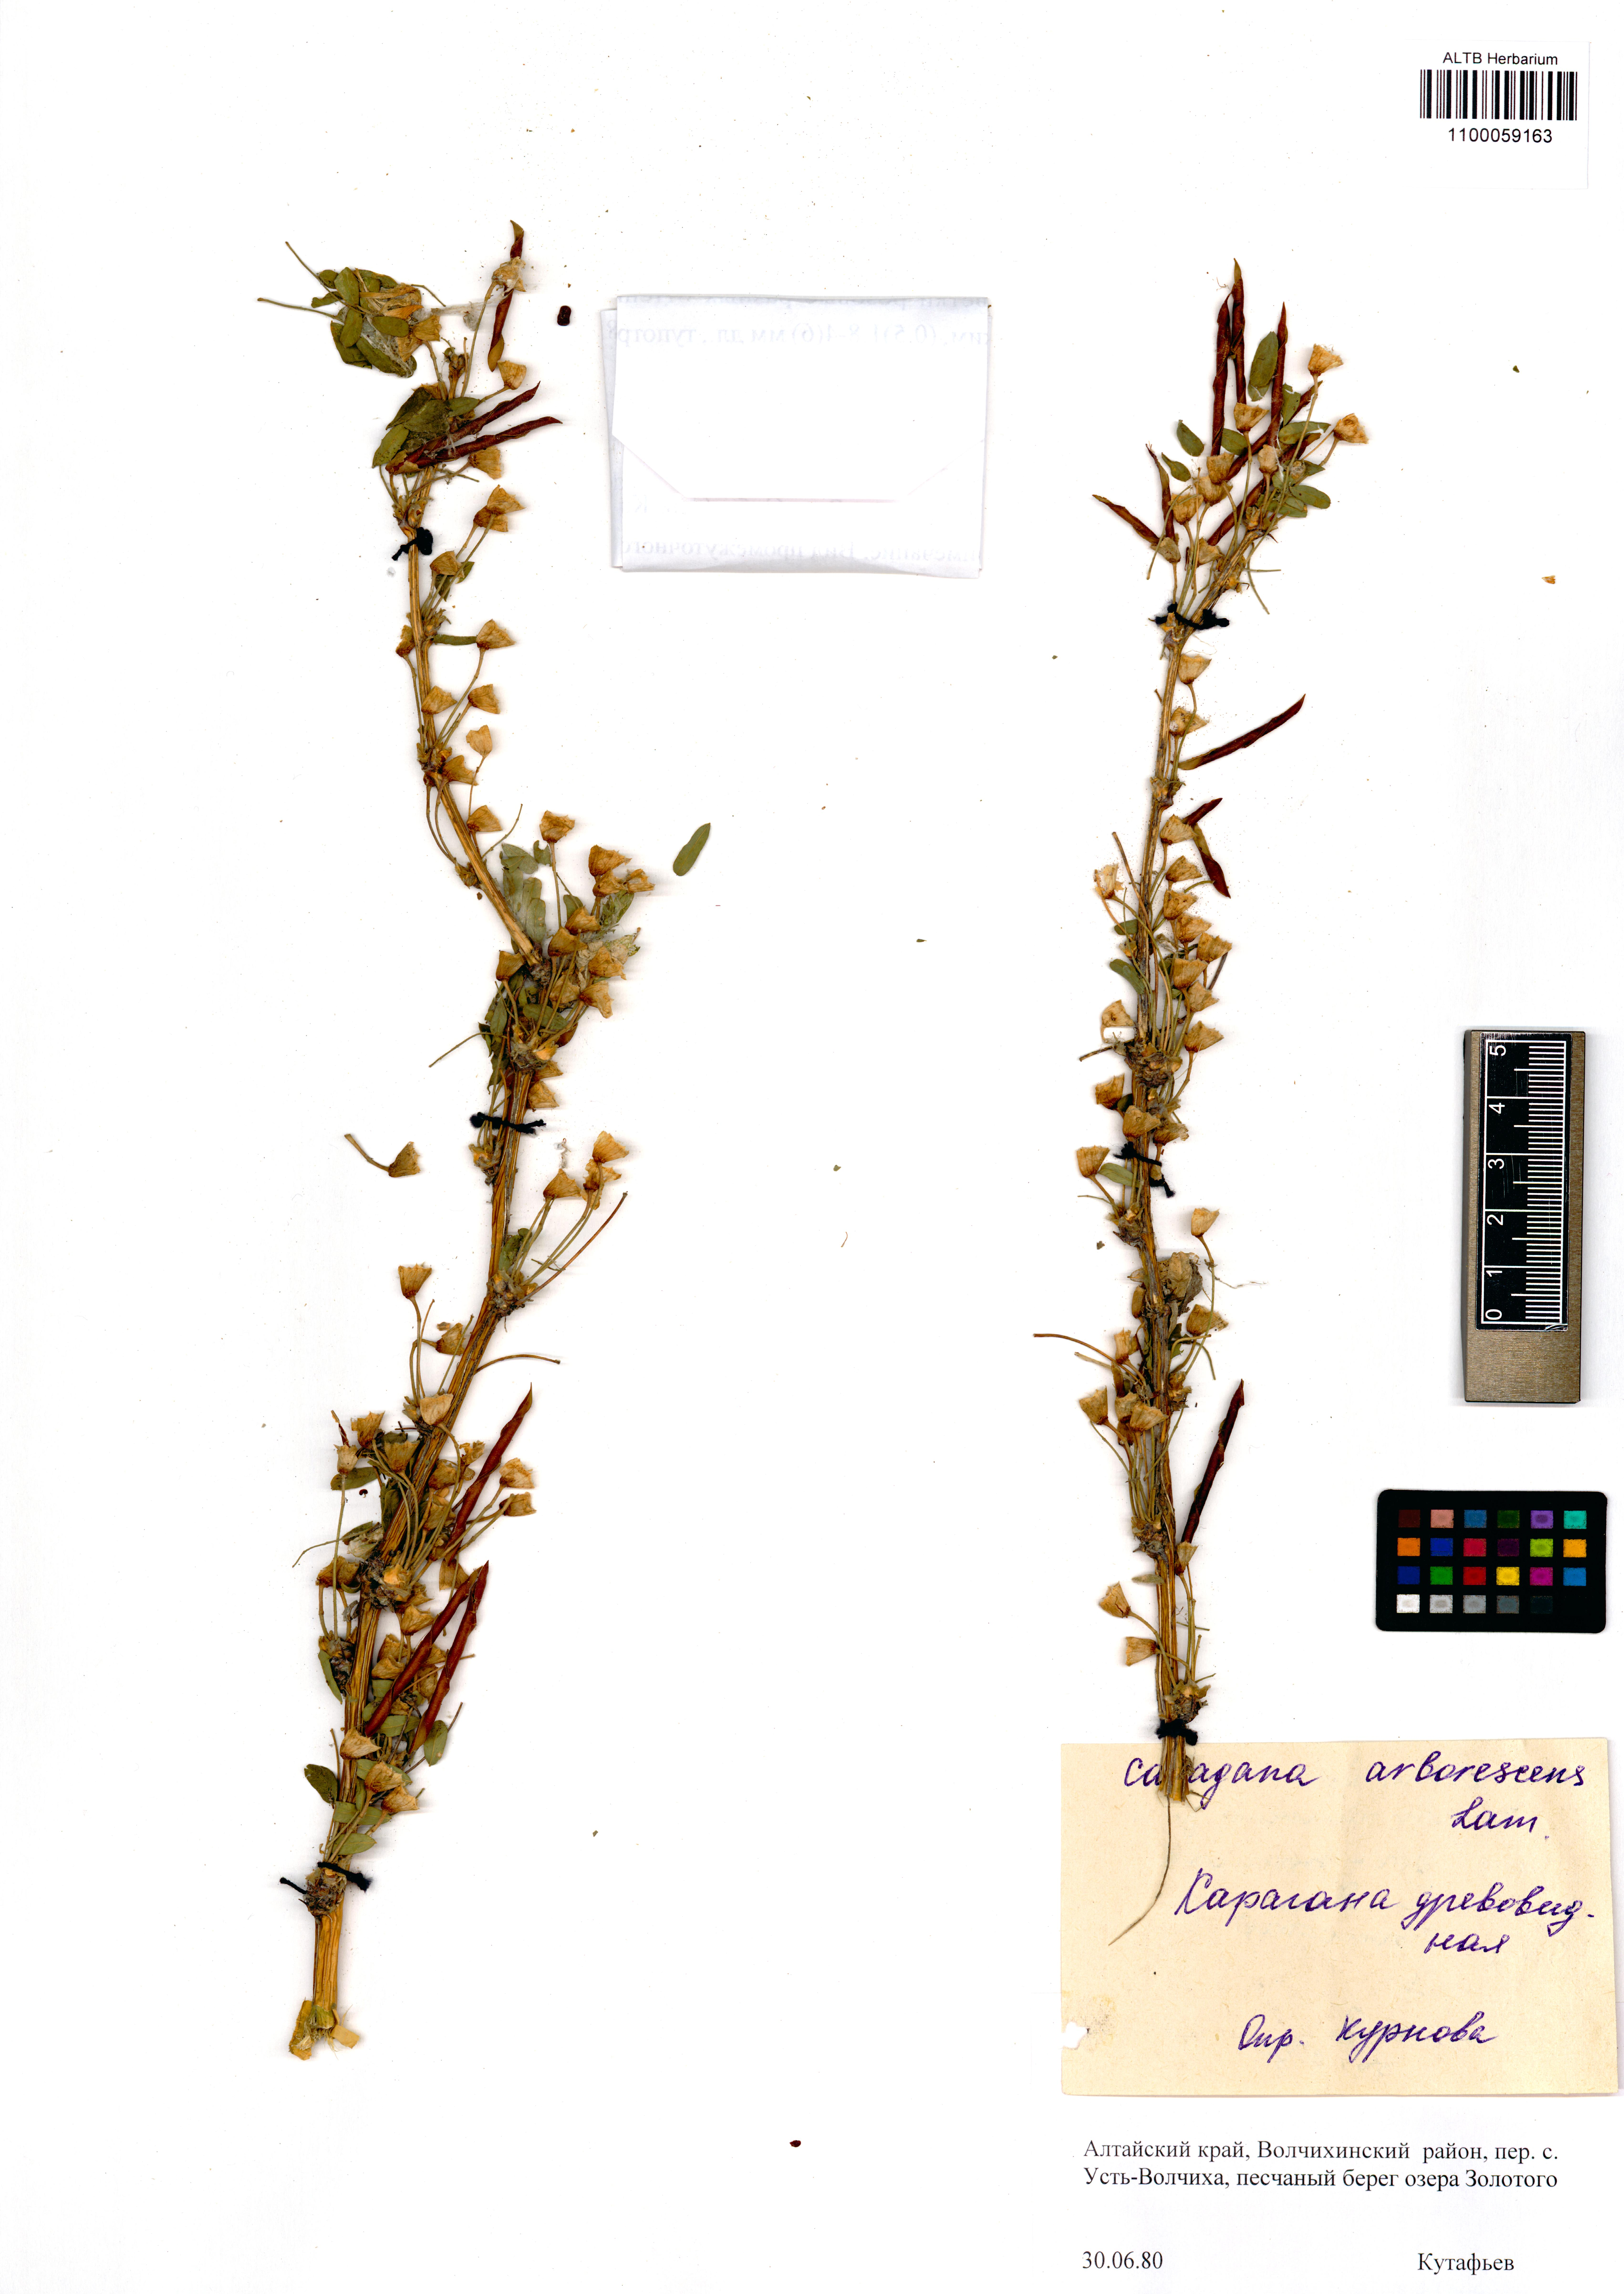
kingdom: Plantae
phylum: Tracheophyta
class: Magnoliopsida
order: Fabales
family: Fabaceae
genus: Caragana
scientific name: Caragana arborescens
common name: Siberian peashrub
